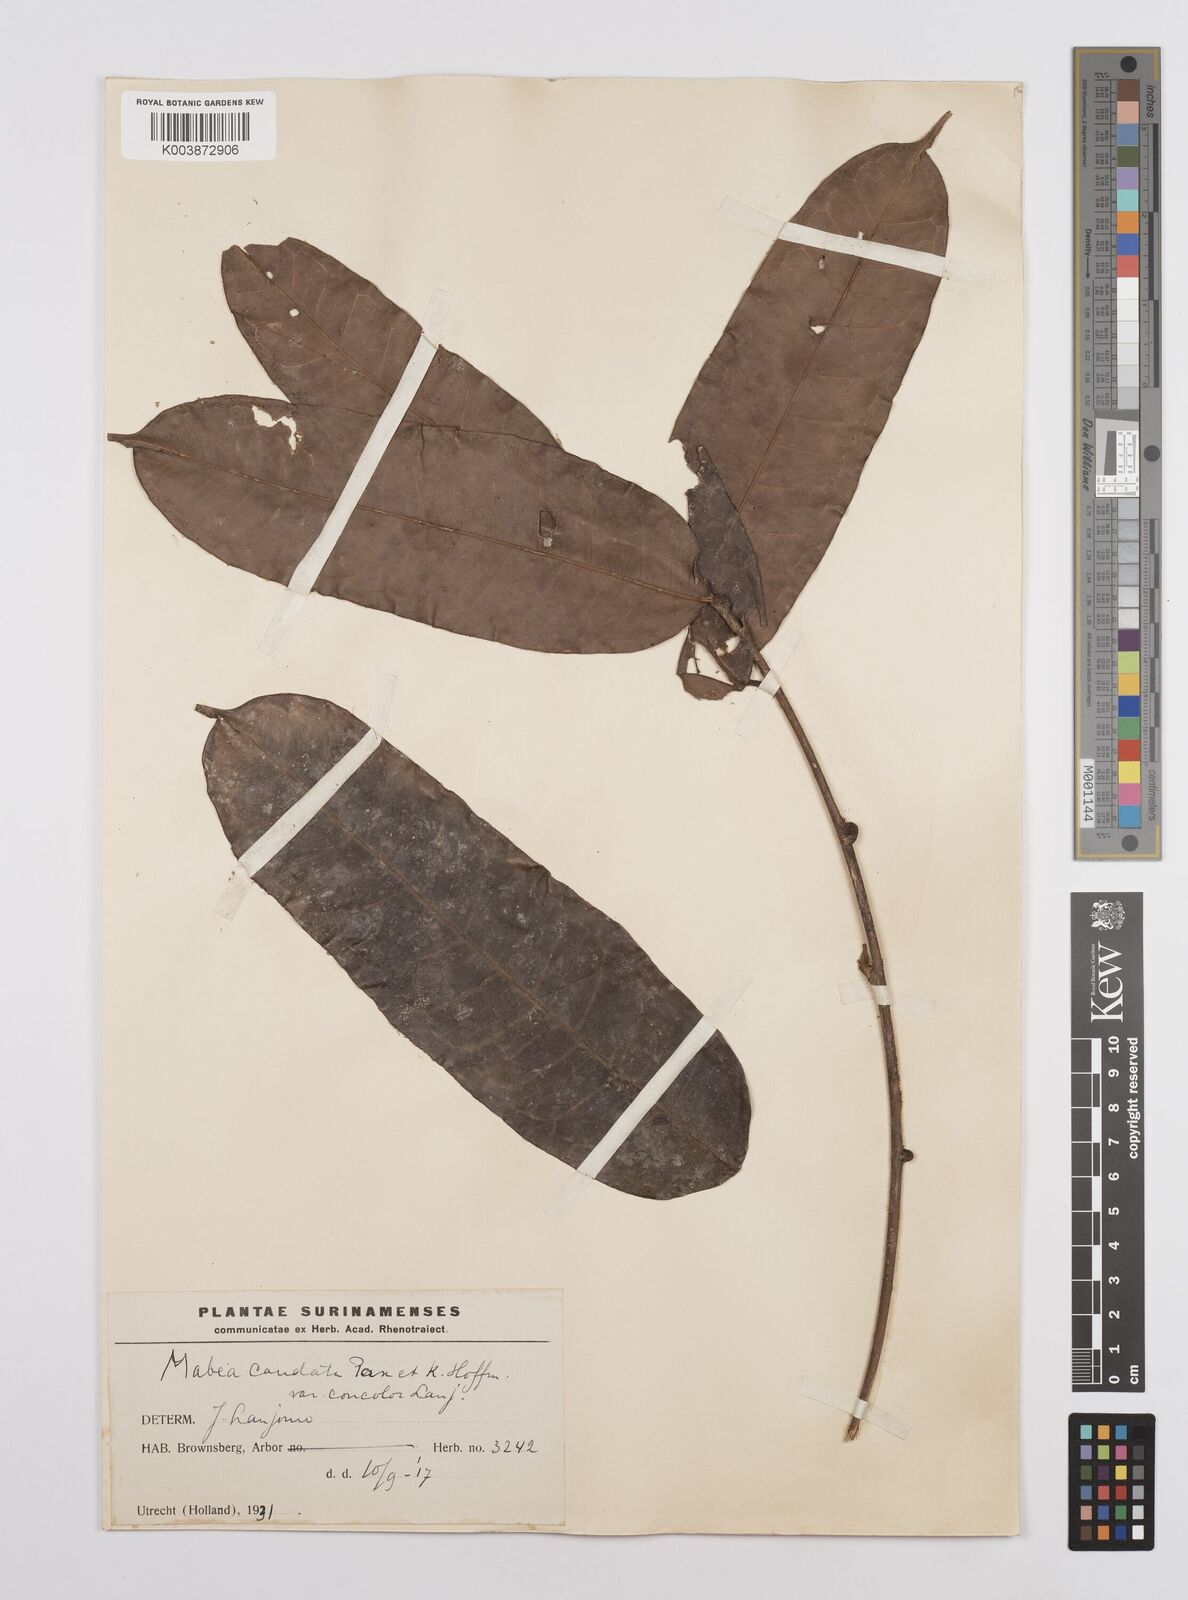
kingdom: Plantae
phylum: Tracheophyta
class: Magnoliopsida
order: Malpighiales
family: Euphorbiaceae
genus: Mabea
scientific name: Mabea piriri
